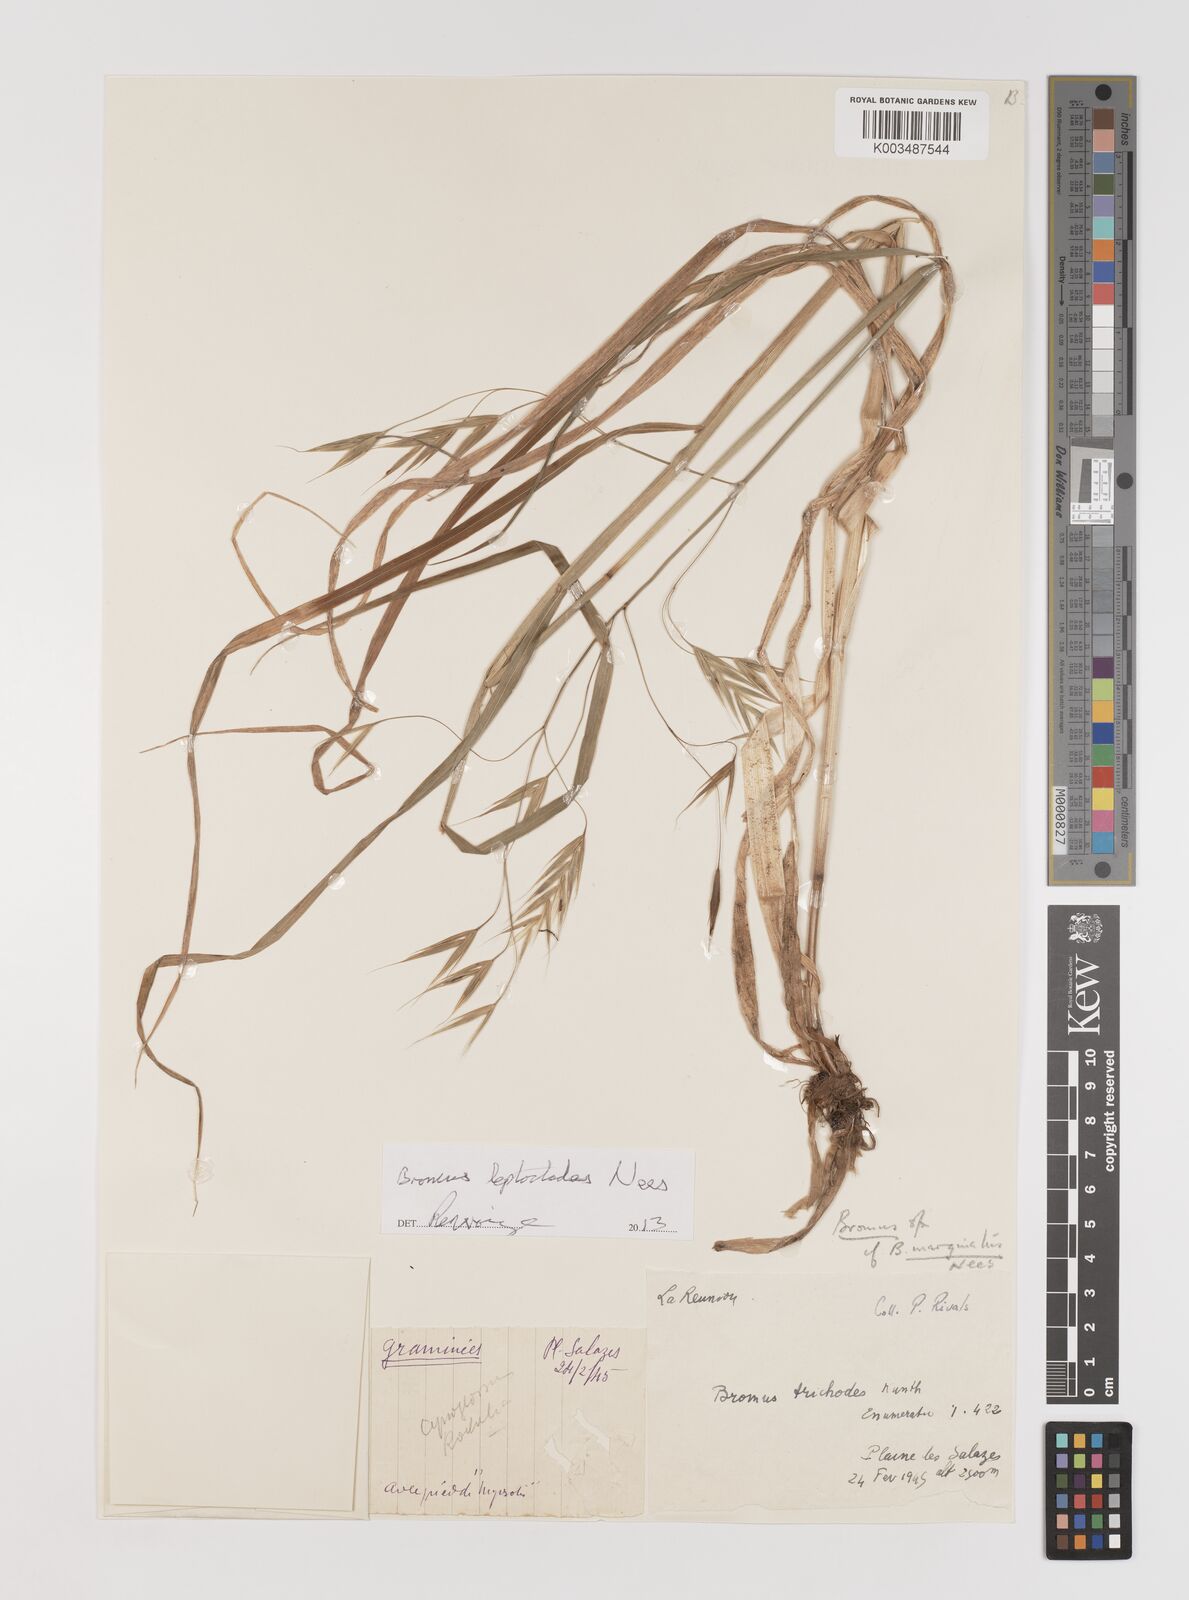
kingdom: Plantae
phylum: Tracheophyta
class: Liliopsida
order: Poales
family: Poaceae
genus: Bromus
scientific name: Bromus leptoclados
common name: Mountain bromegrass
